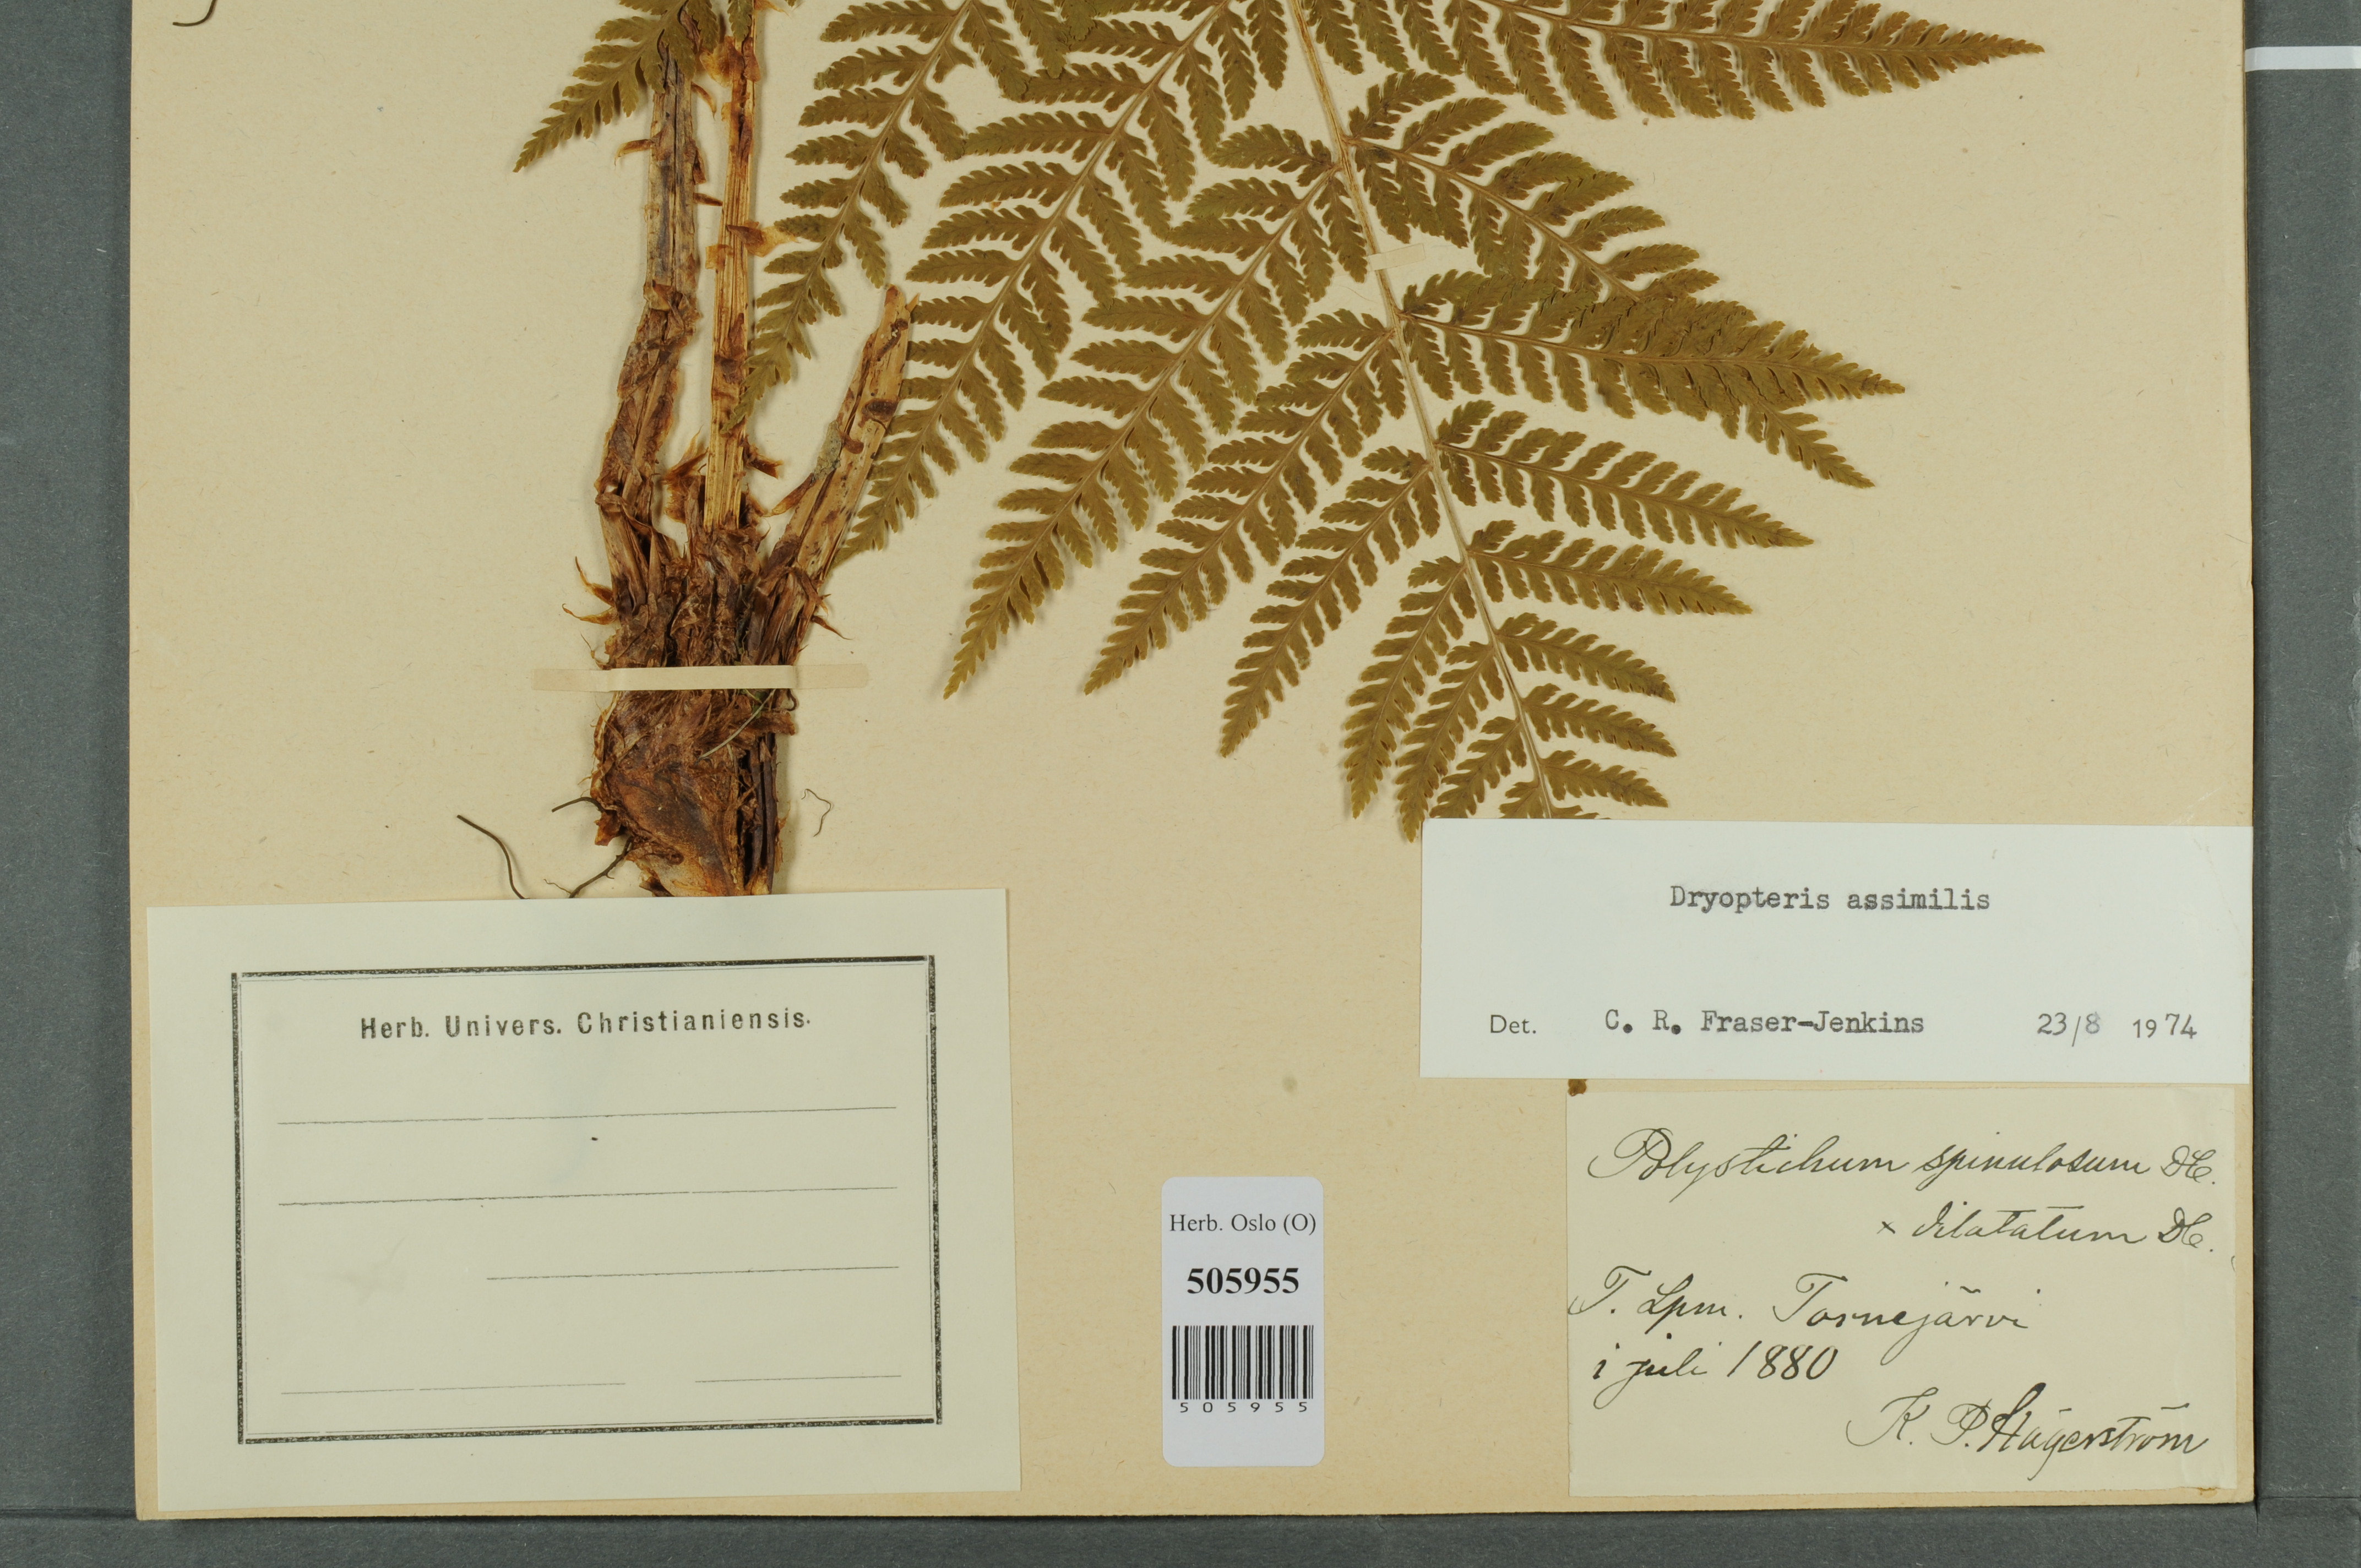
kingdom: Plantae
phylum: Tracheophyta
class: Polypodiopsida
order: Polypodiales
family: Dryopteridaceae
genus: Dryopteris
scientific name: Dryopteris expansa
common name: Northern buckler fern
